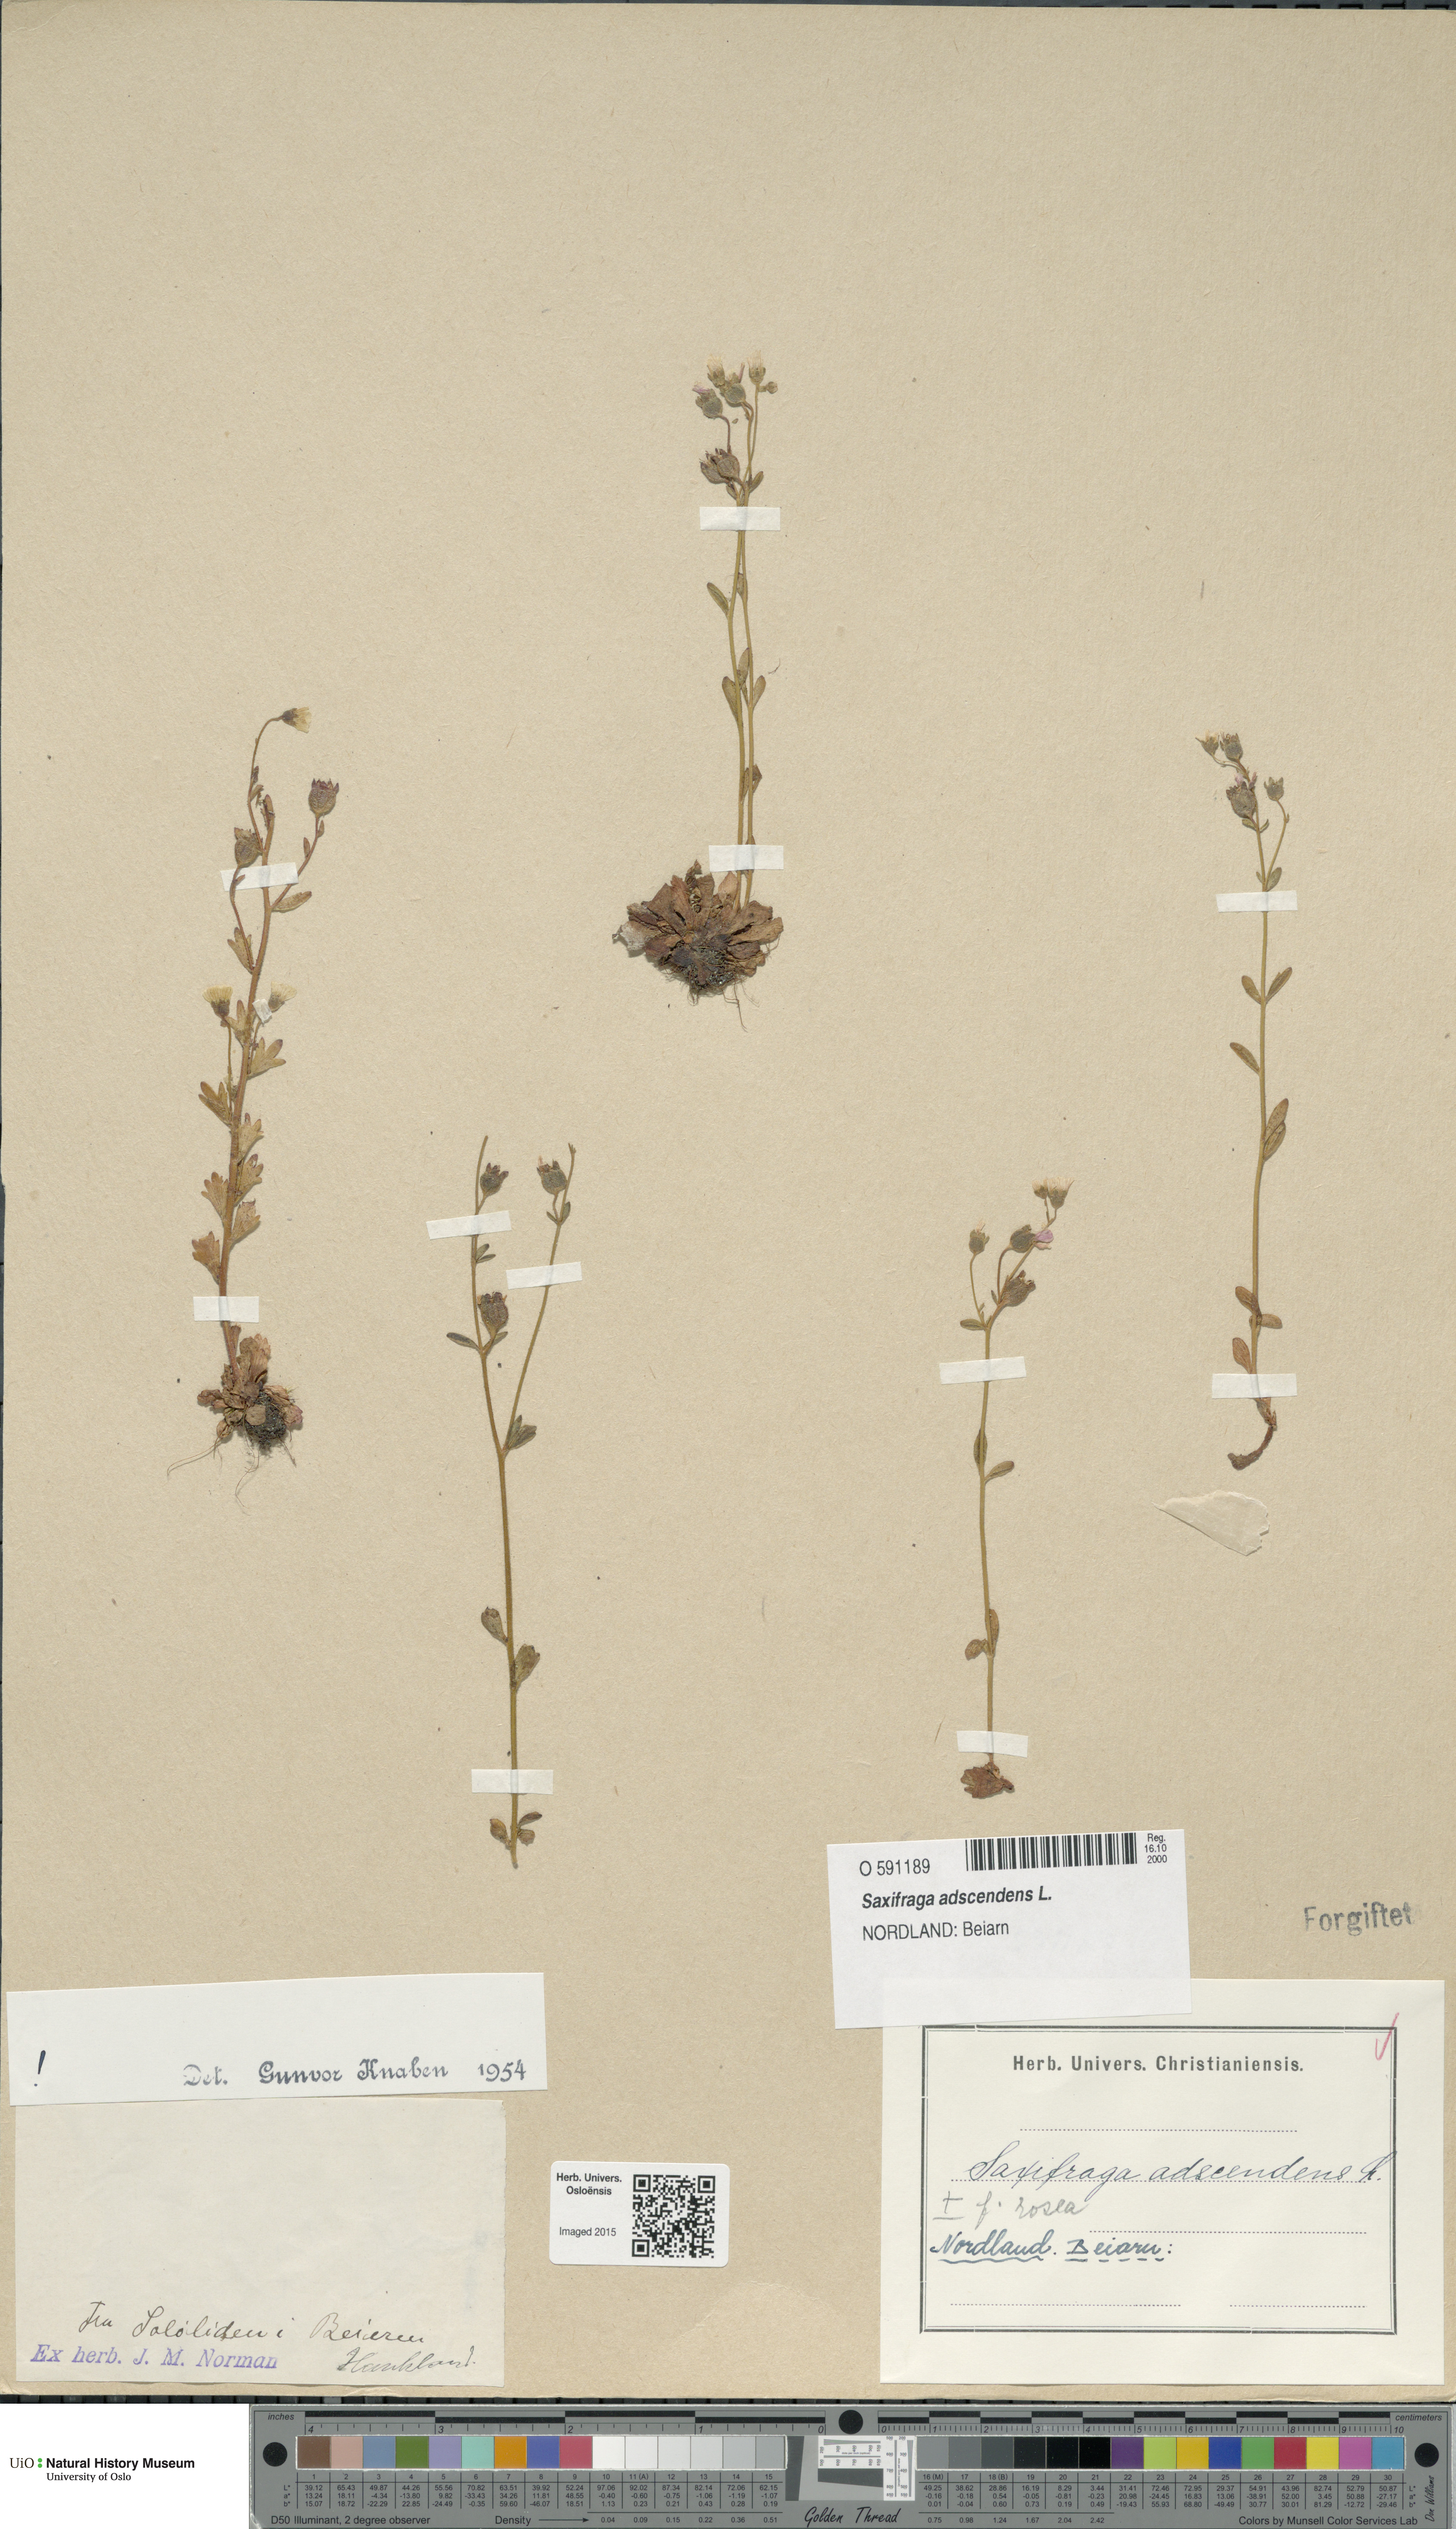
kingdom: Plantae
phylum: Tracheophyta
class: Magnoliopsida
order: Saxifragales
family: Saxifragaceae
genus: Saxifraga
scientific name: Saxifraga adscendens
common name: Ascending saxifrage
